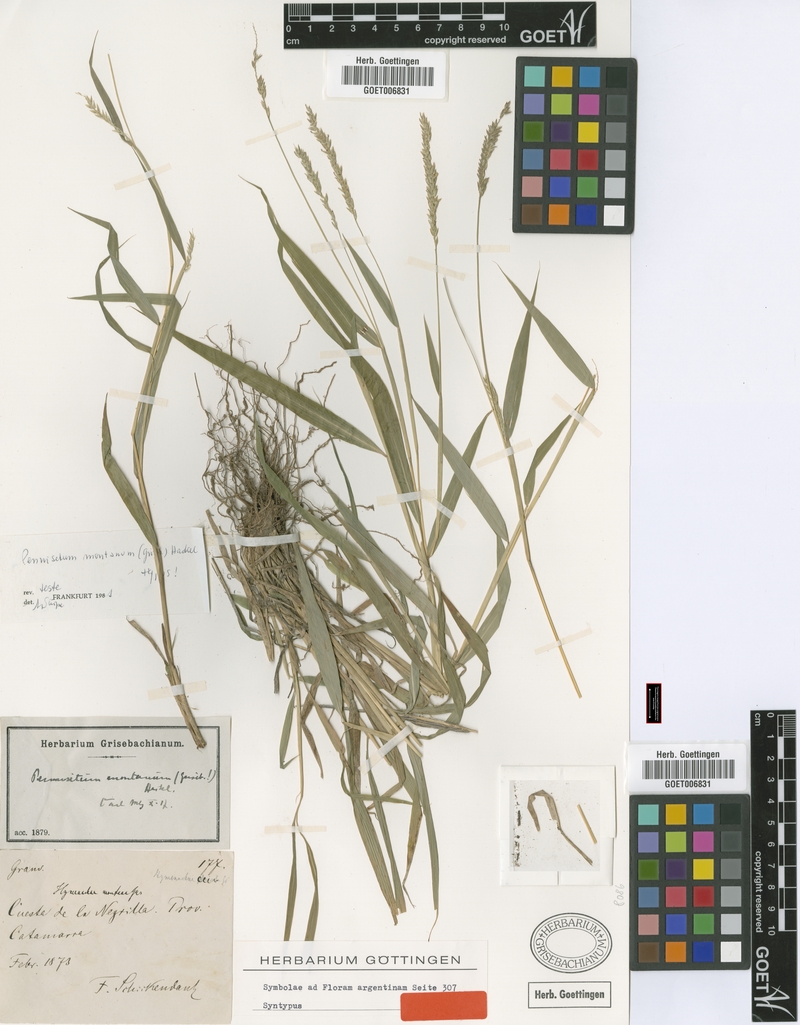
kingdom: Plantae
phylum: Tracheophyta
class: Liliopsida
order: Poales
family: Poaceae
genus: Cenchrus
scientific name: Cenchrus mutilatus
